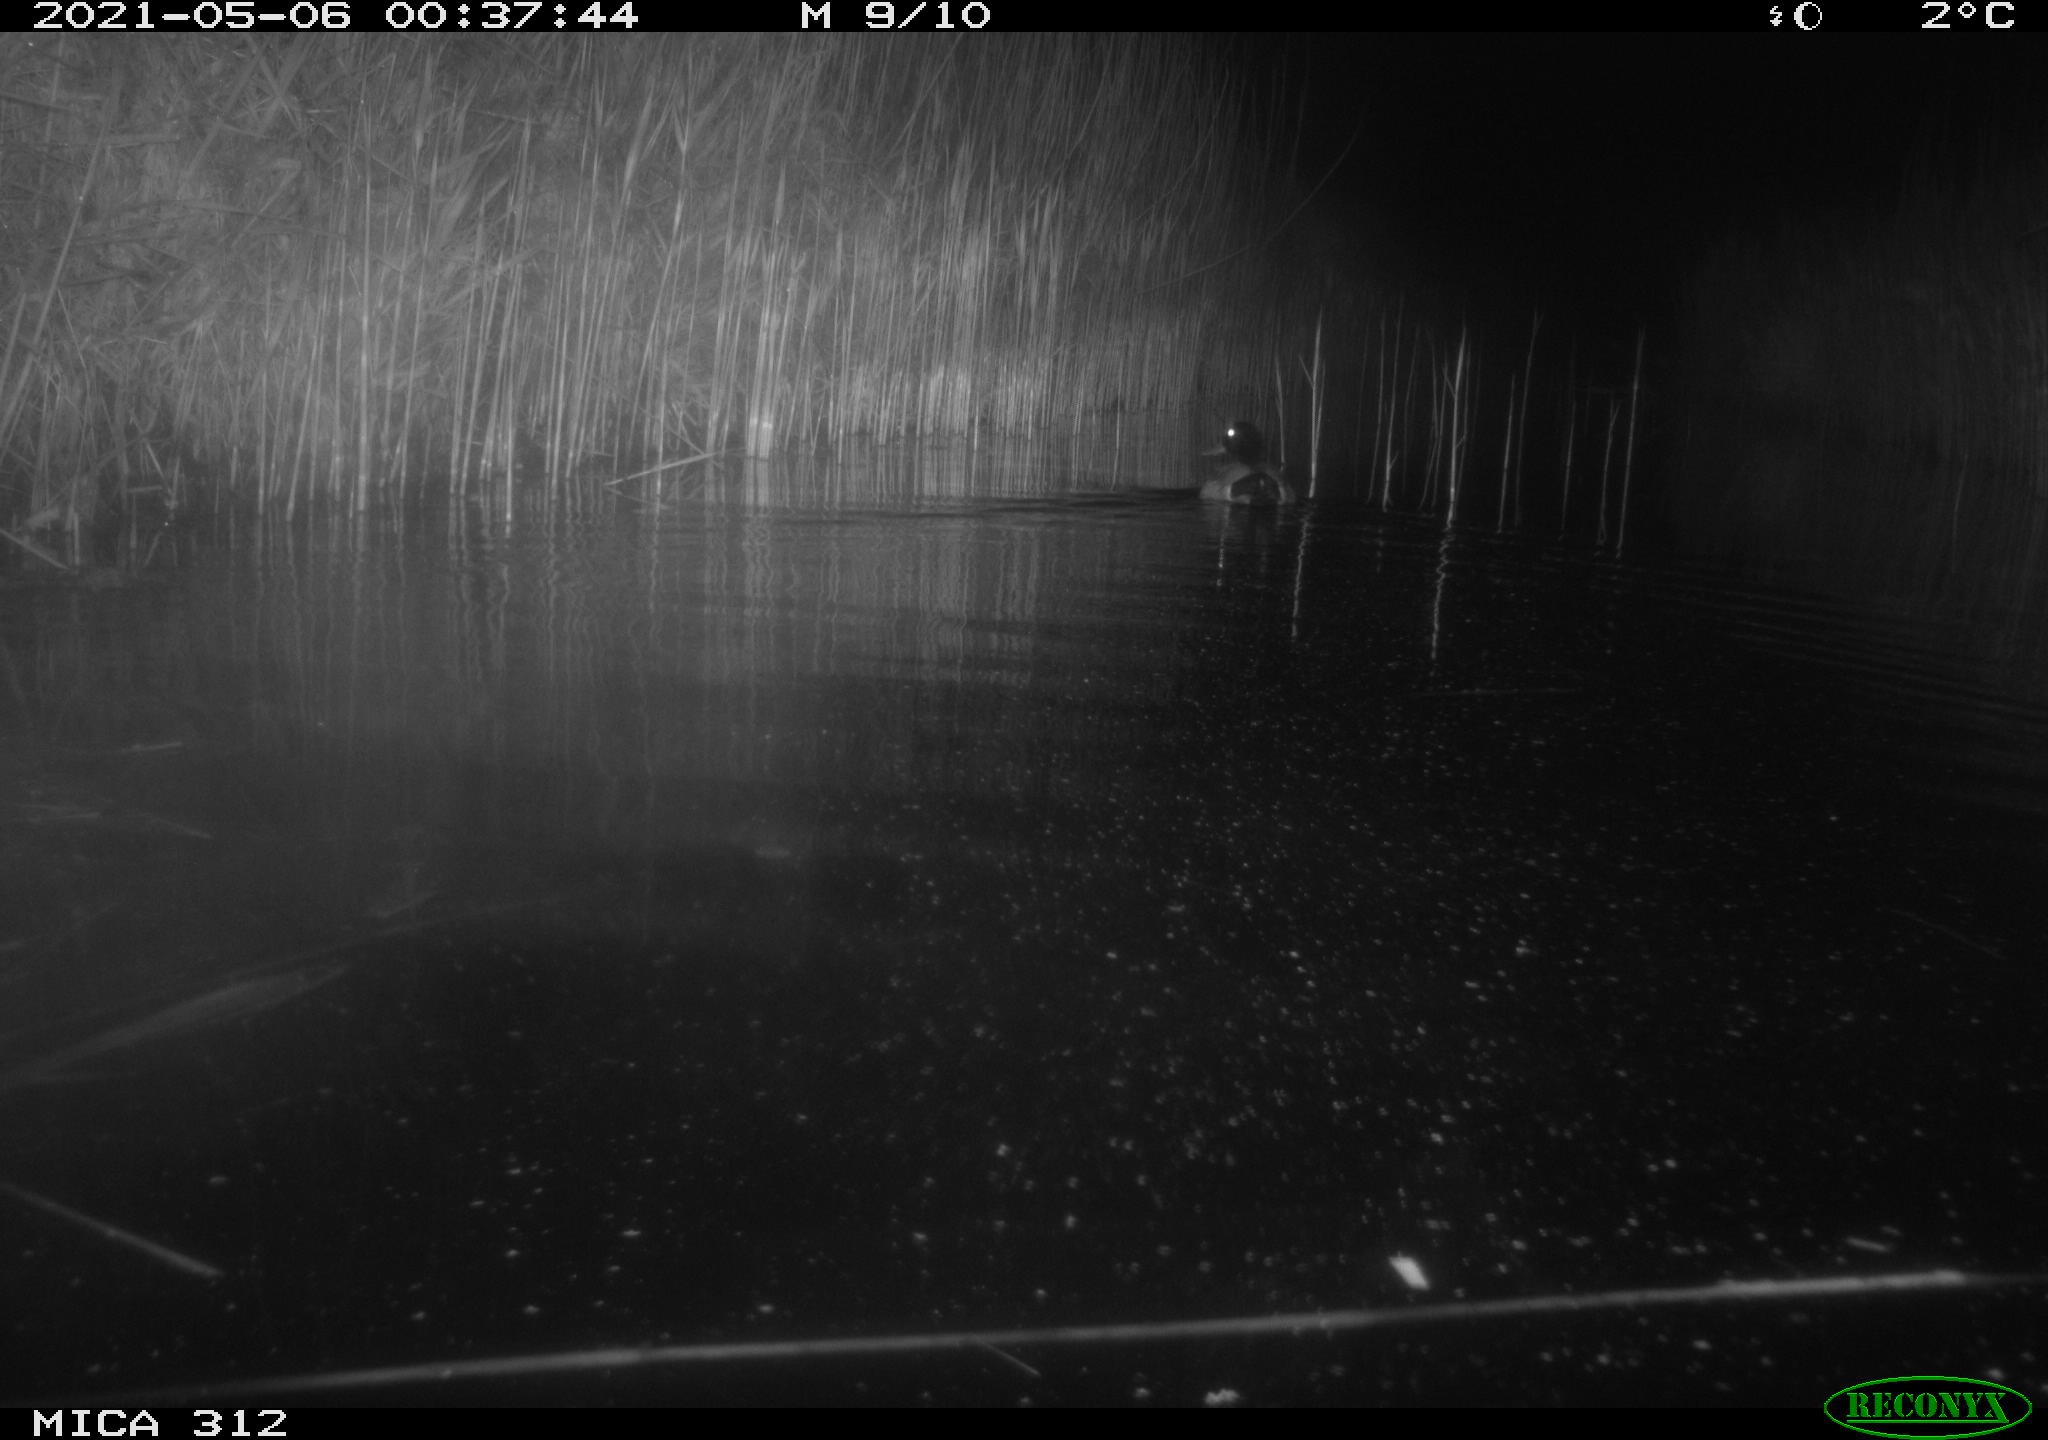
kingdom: Animalia
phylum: Chordata
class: Aves
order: Anseriformes
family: Anatidae
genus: Anas
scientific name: Anas platyrhynchos
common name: Mallard
